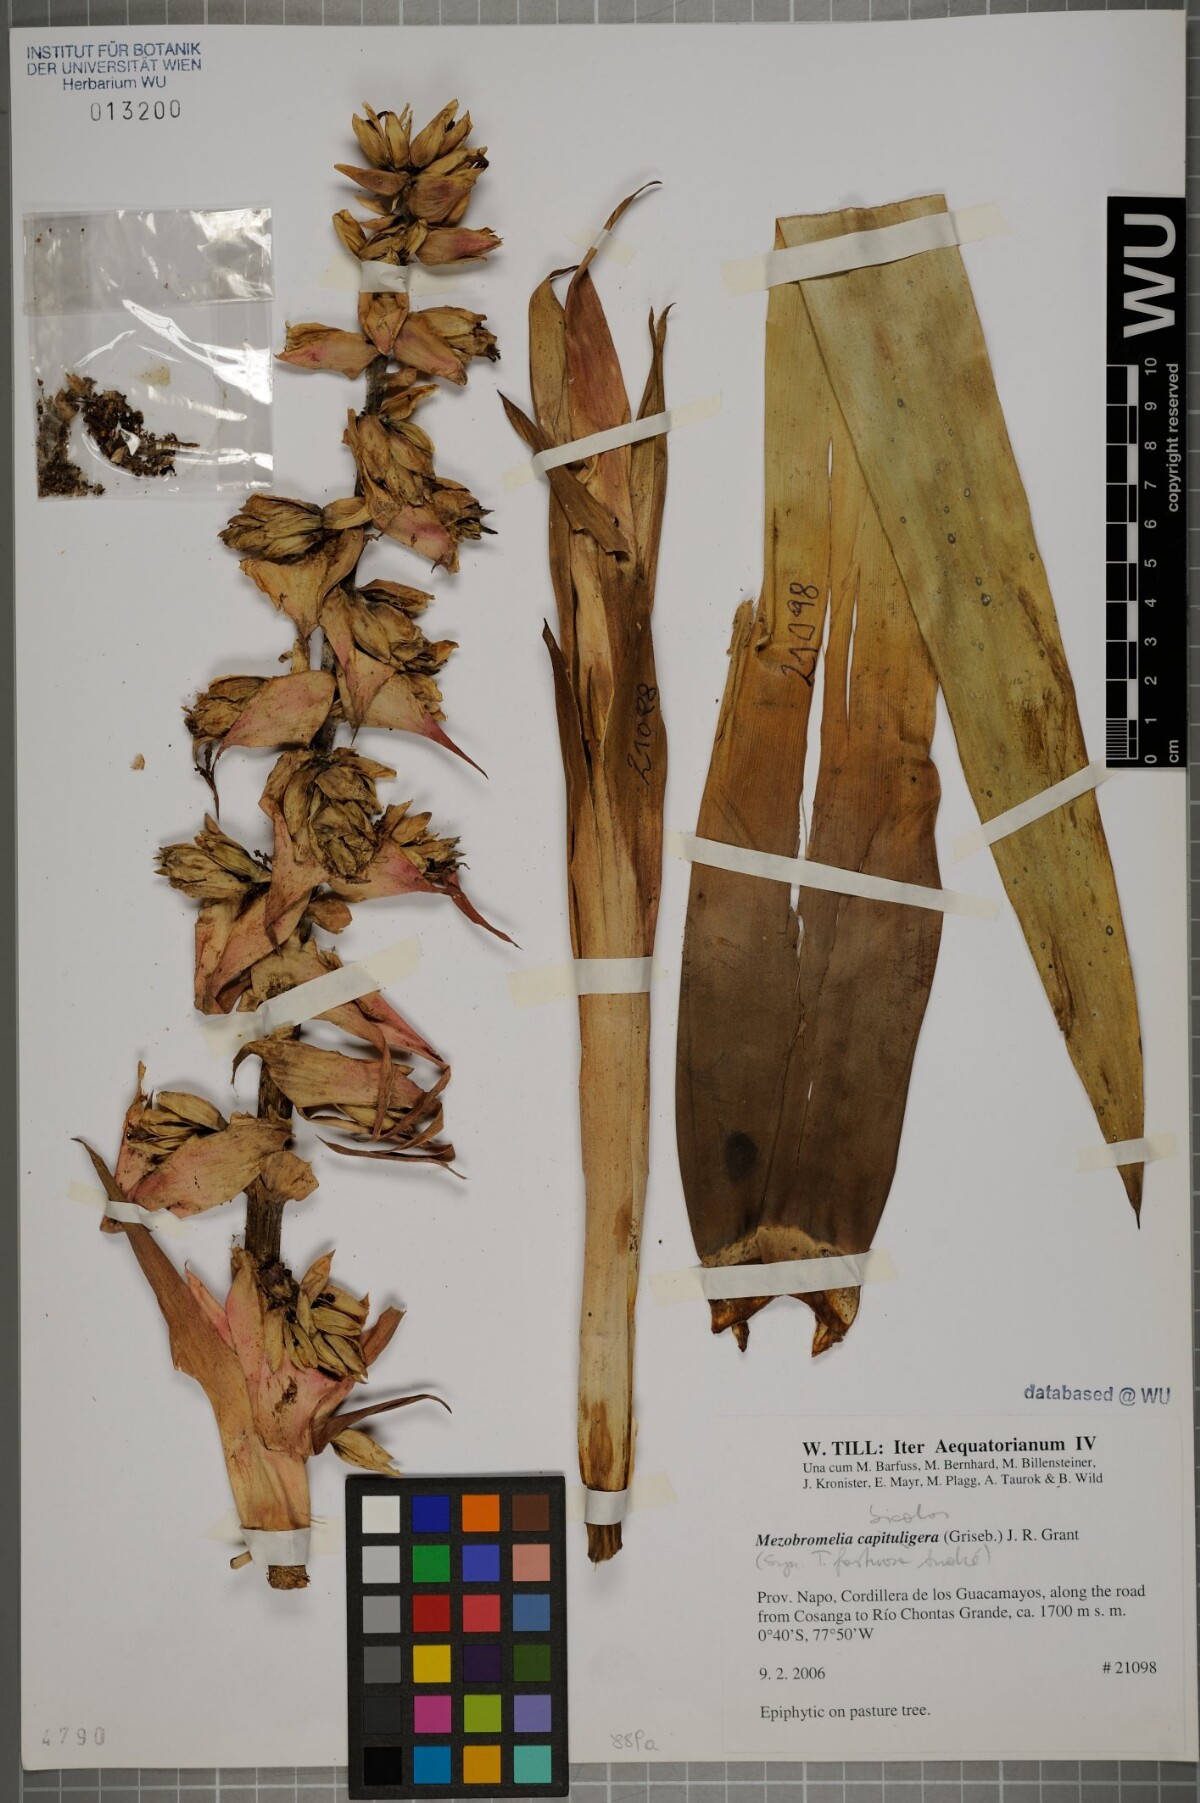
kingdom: Plantae
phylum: Tracheophyta
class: Liliopsida
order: Poales
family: Bromeliaceae
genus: Cipuropsis
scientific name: Cipuropsis bicolor
